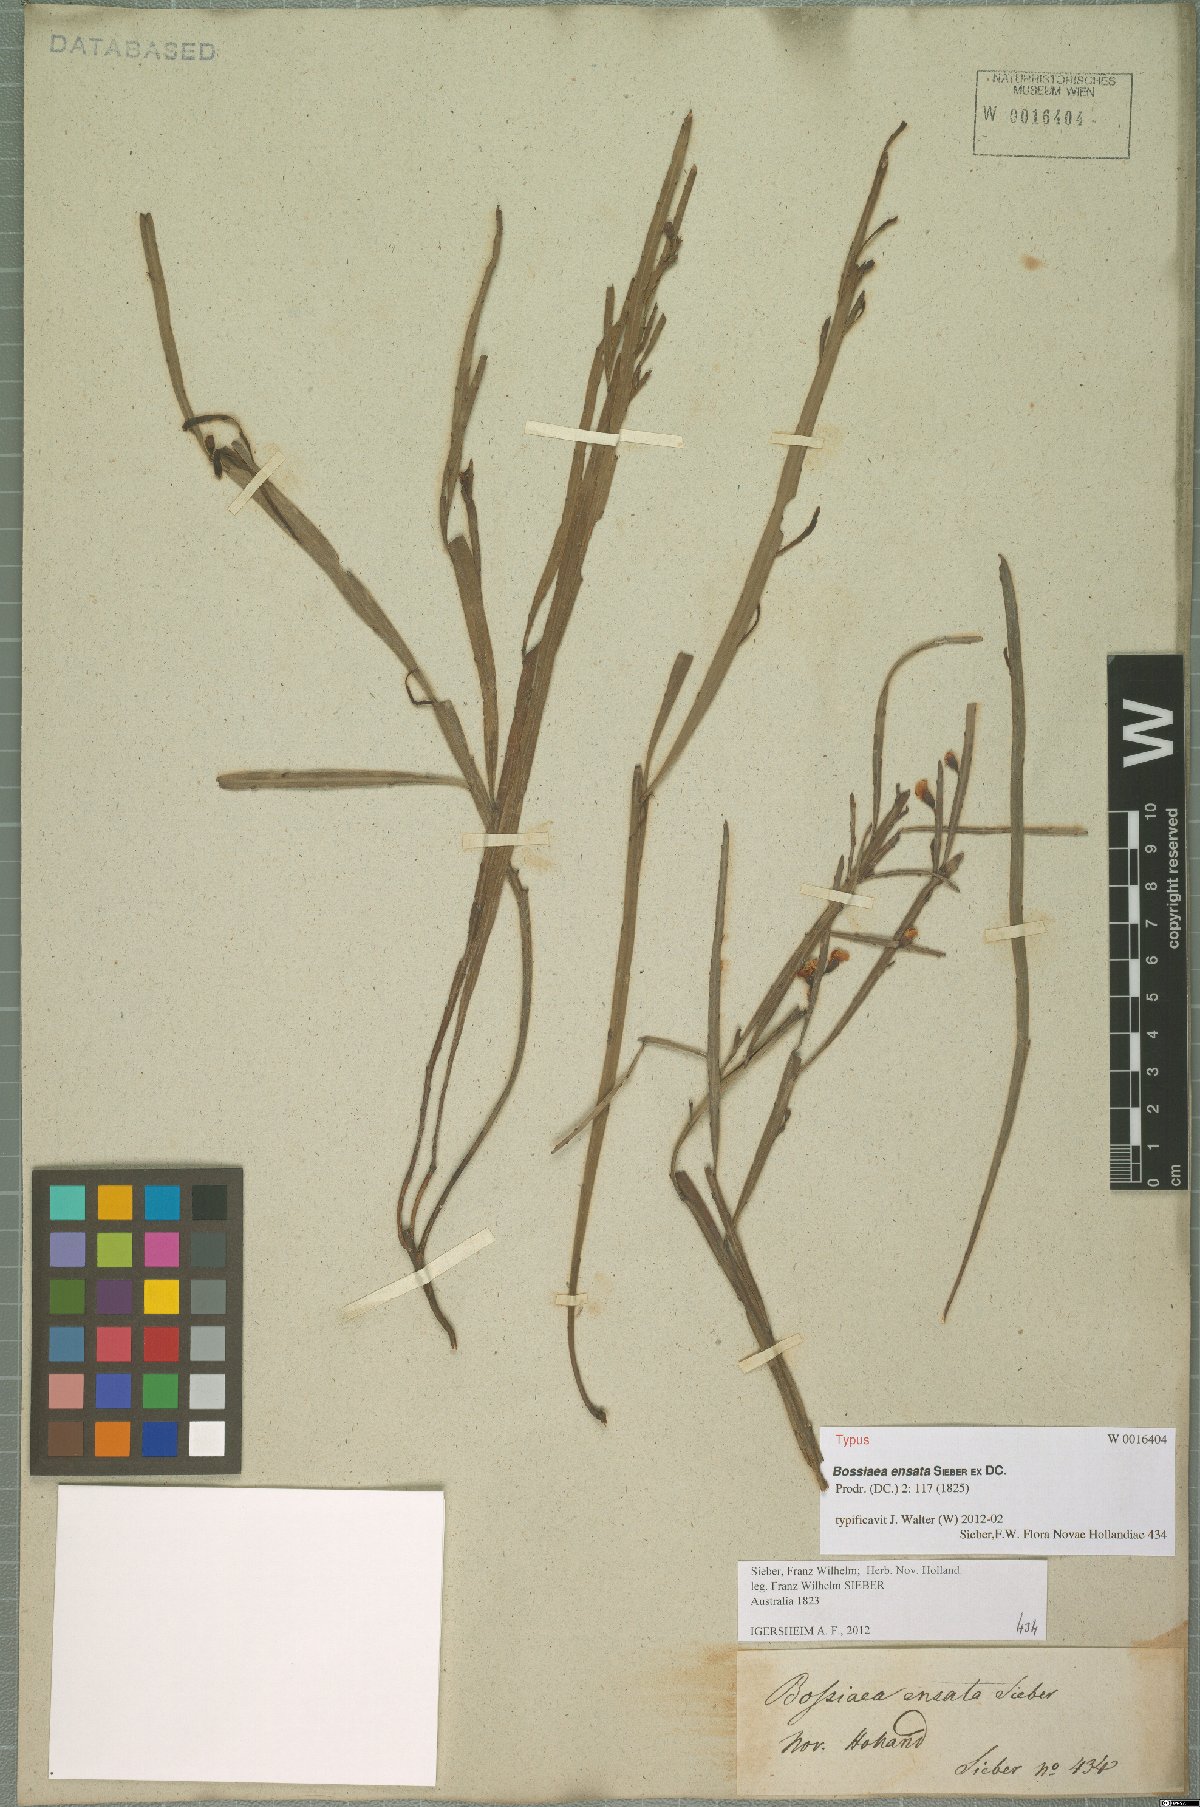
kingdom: Plantae
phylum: Tracheophyta
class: Magnoliopsida
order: Fabales
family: Fabaceae
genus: Bossiaea
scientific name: Bossiaea ensata
